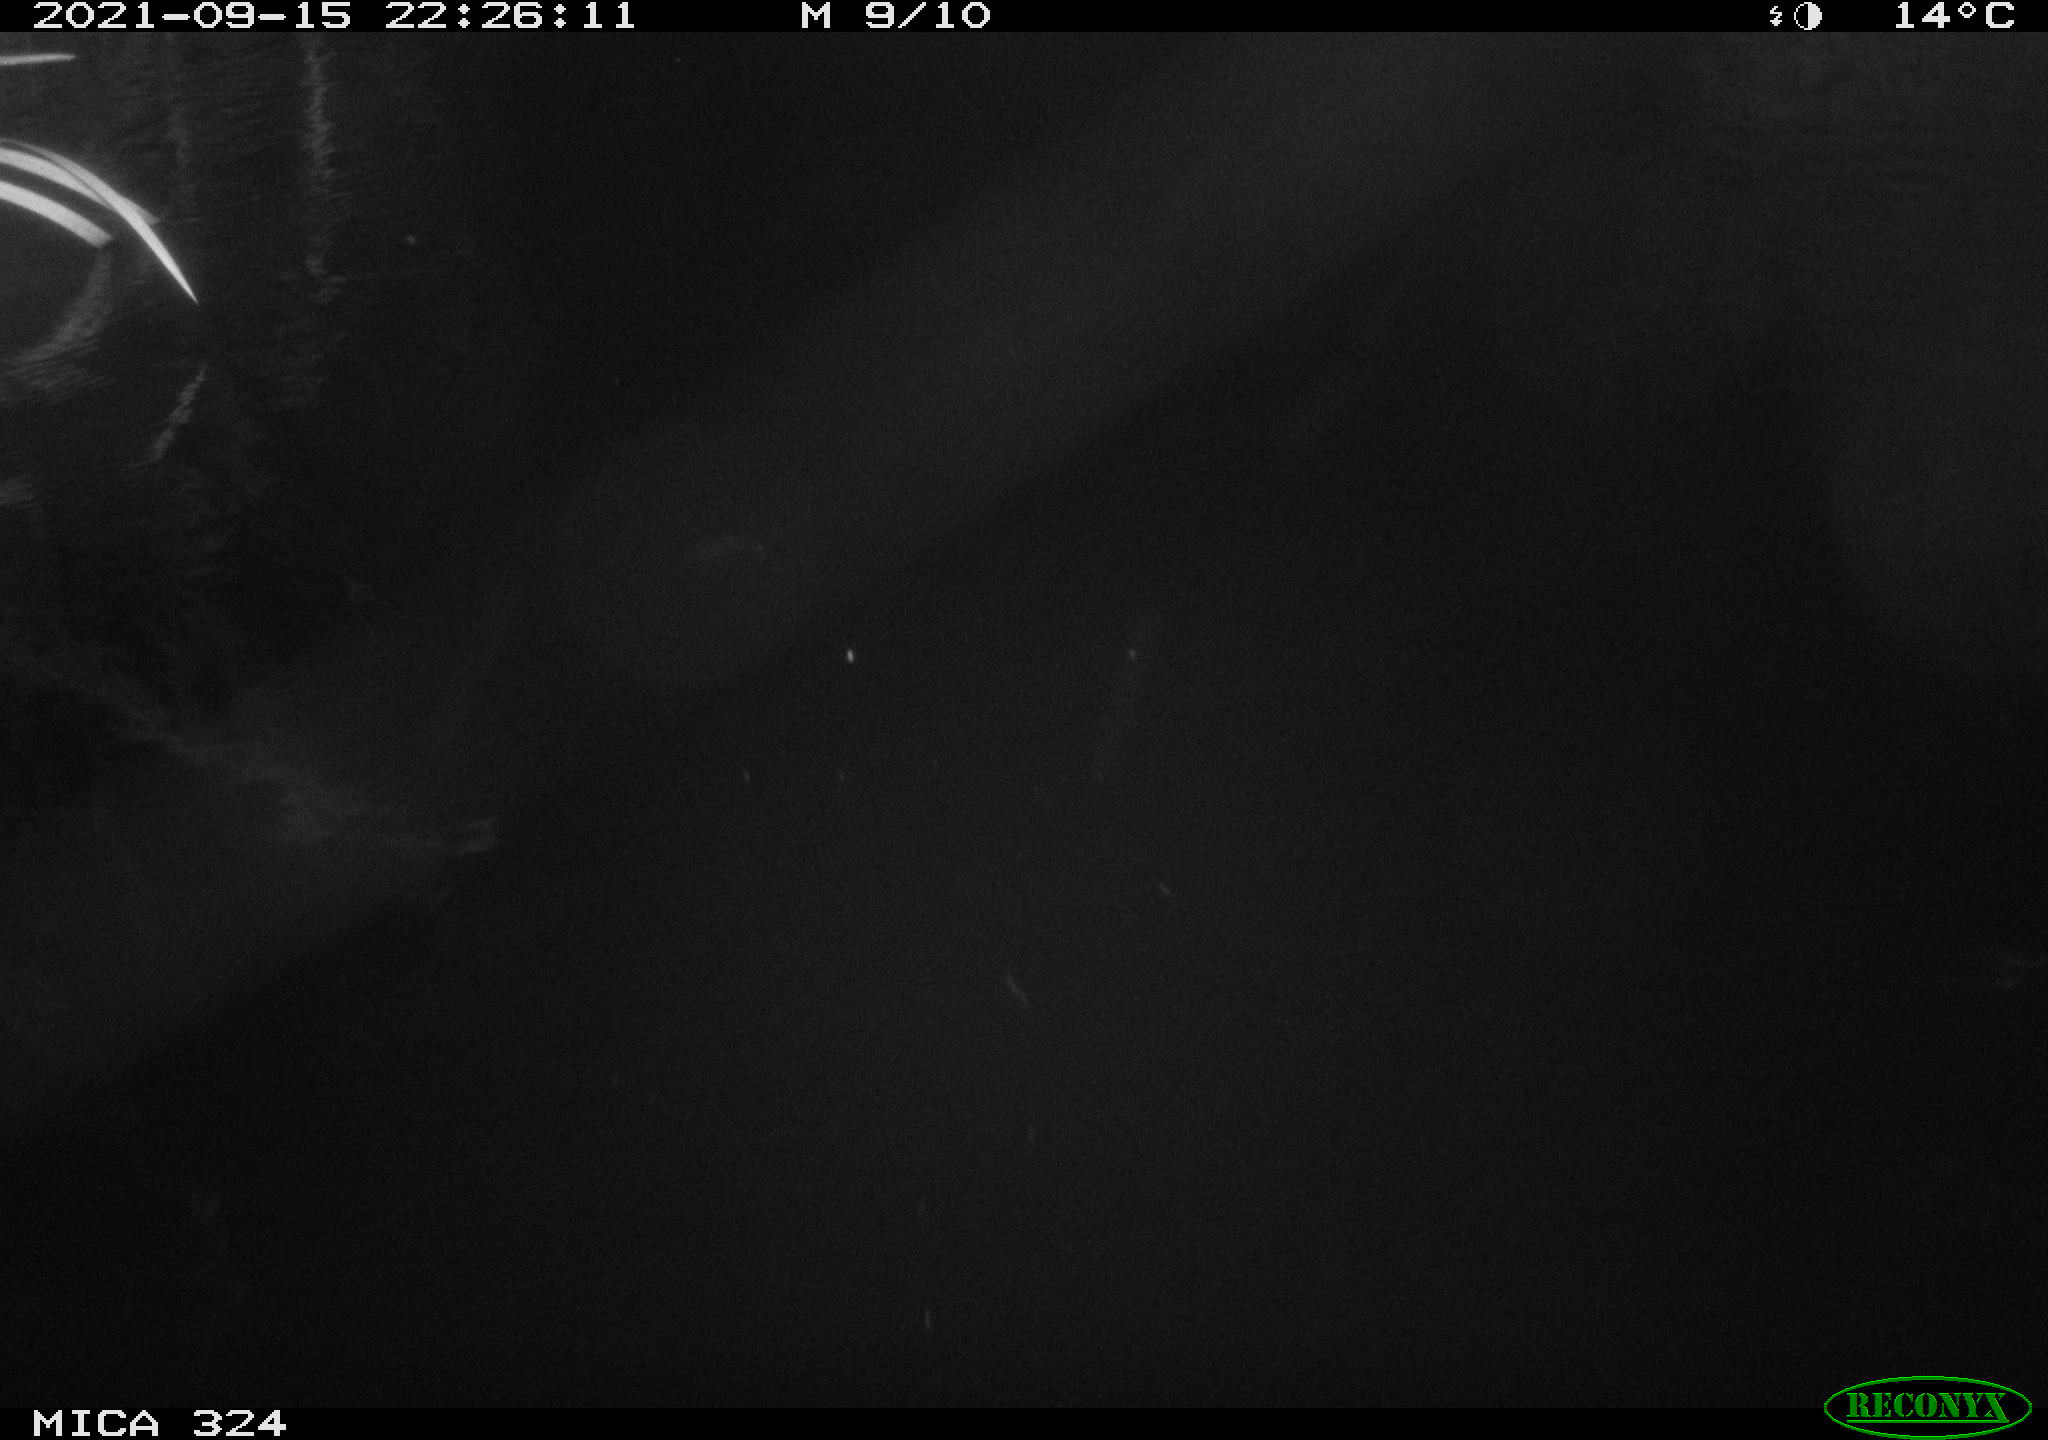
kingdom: Animalia
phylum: Chordata
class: Mammalia
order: Rodentia
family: Cricetidae
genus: Ondatra
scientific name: Ondatra zibethicus
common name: Muskrat
